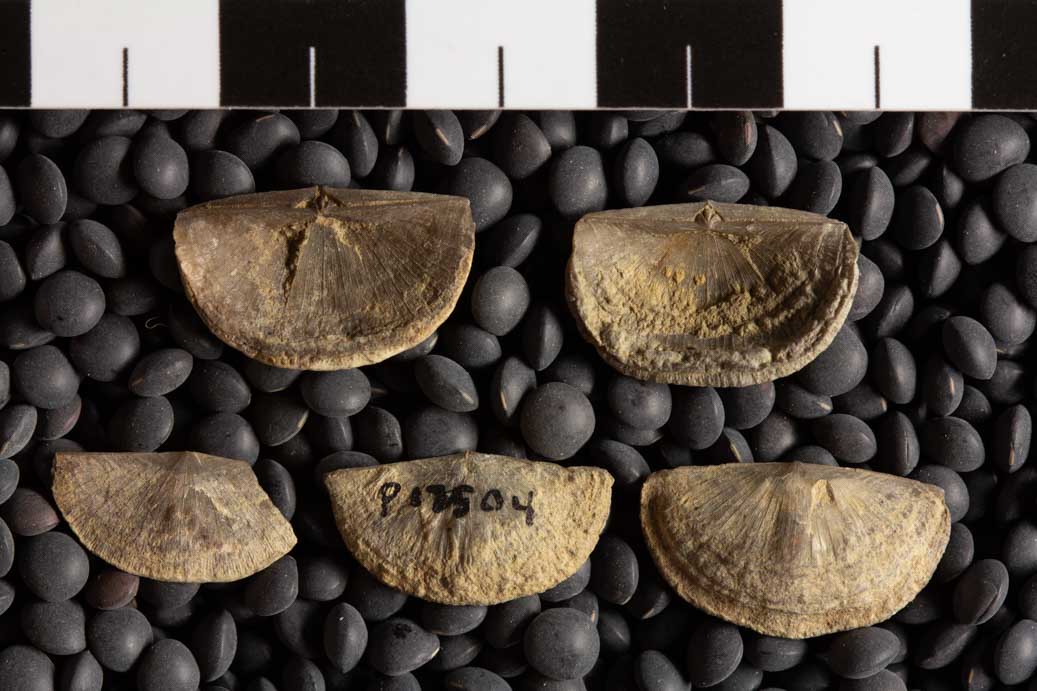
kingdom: Animalia
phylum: Brachiopoda
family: Sowerbyellidae
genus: Sowerbyella
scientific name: Sowerbyella Leptaena sericea
